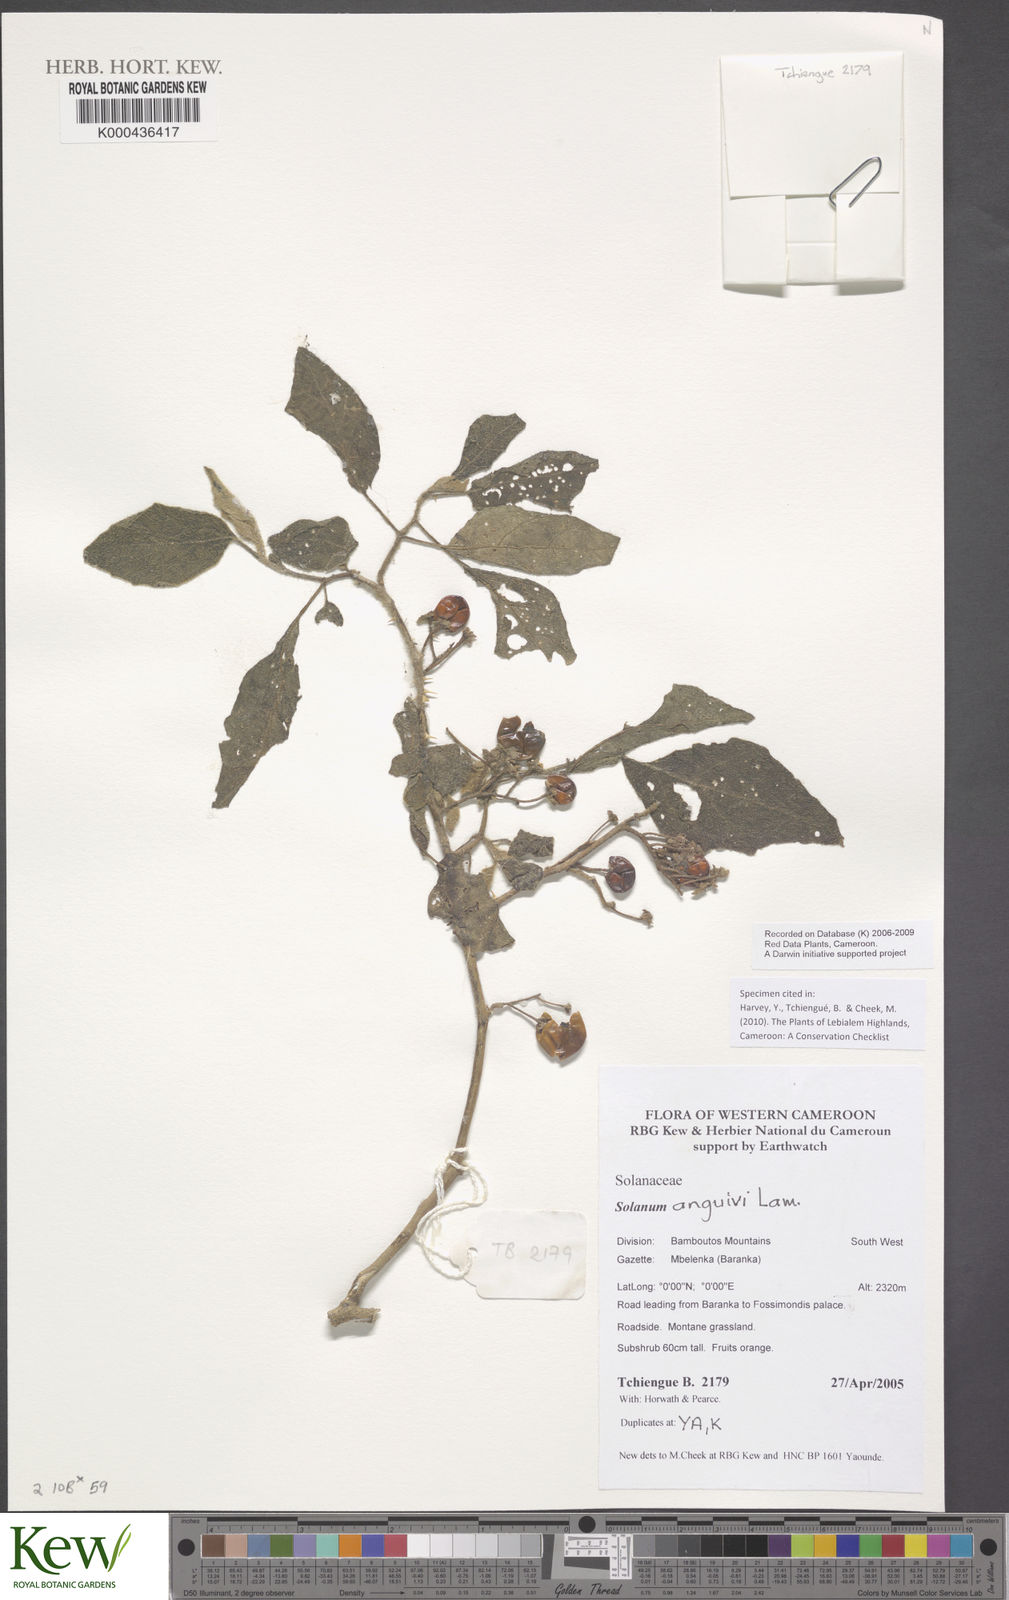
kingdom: Plantae
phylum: Tracheophyta
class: Magnoliopsida
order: Solanales
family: Solanaceae
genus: Solanum
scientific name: Solanum anguivi
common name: Forest bitterberry
